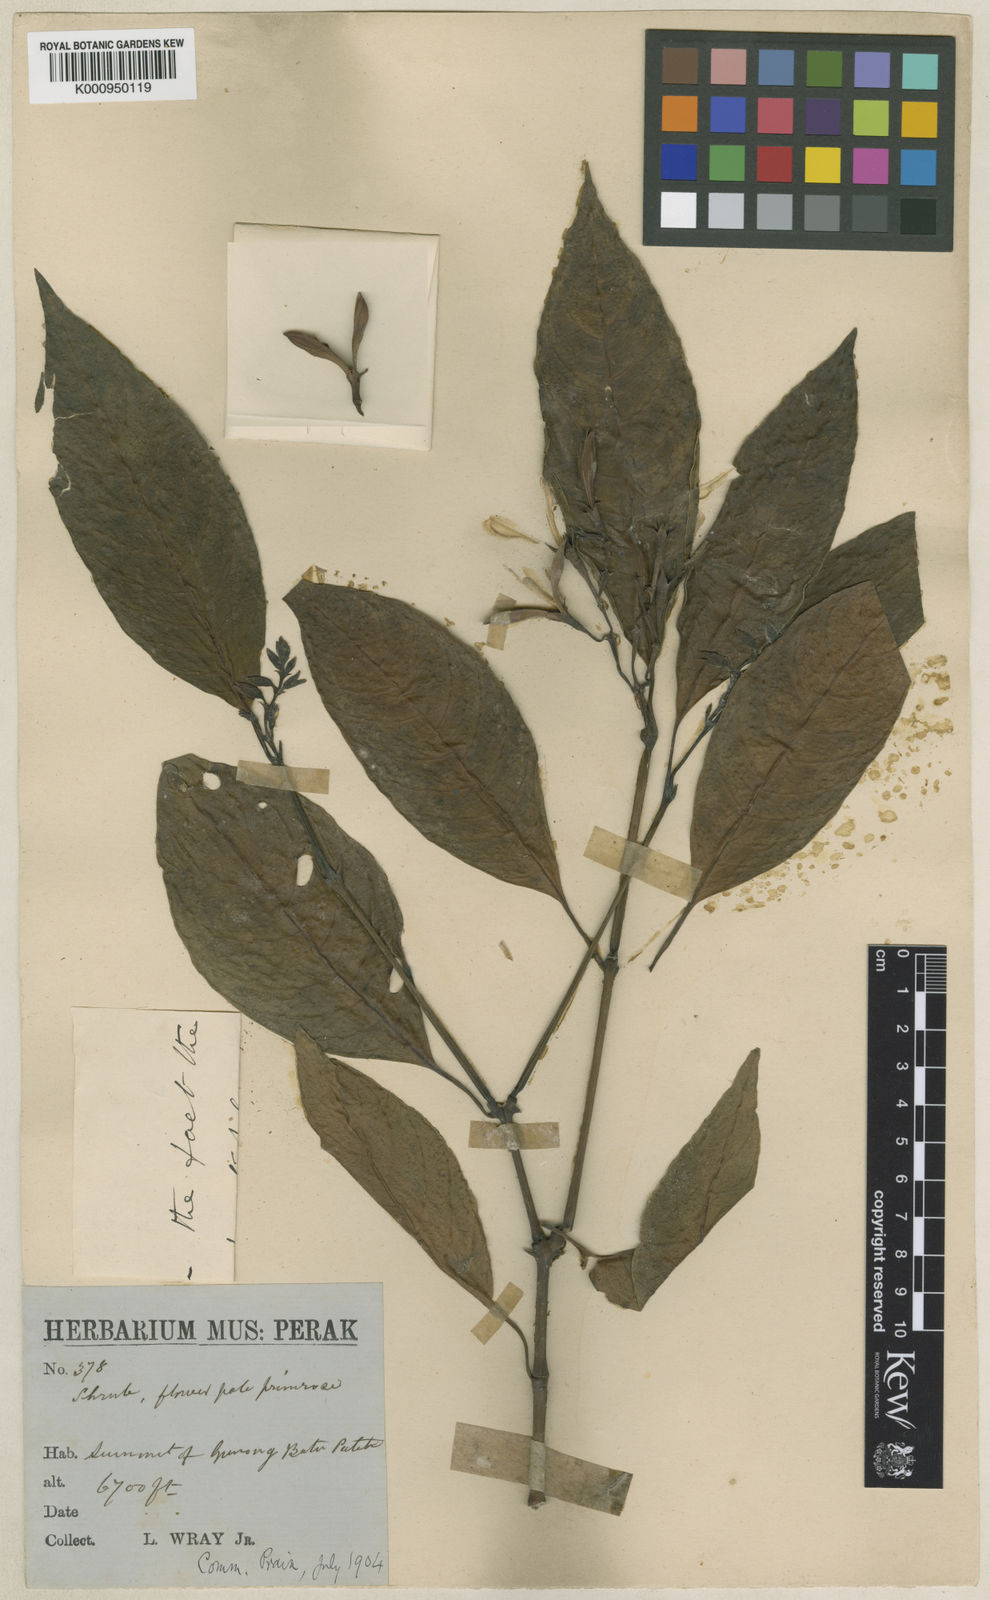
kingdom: Plantae
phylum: Tracheophyta
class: Magnoliopsida
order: Lamiales
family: Acanthaceae
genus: Phialacanthus
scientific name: Phialacanthus wrayi
